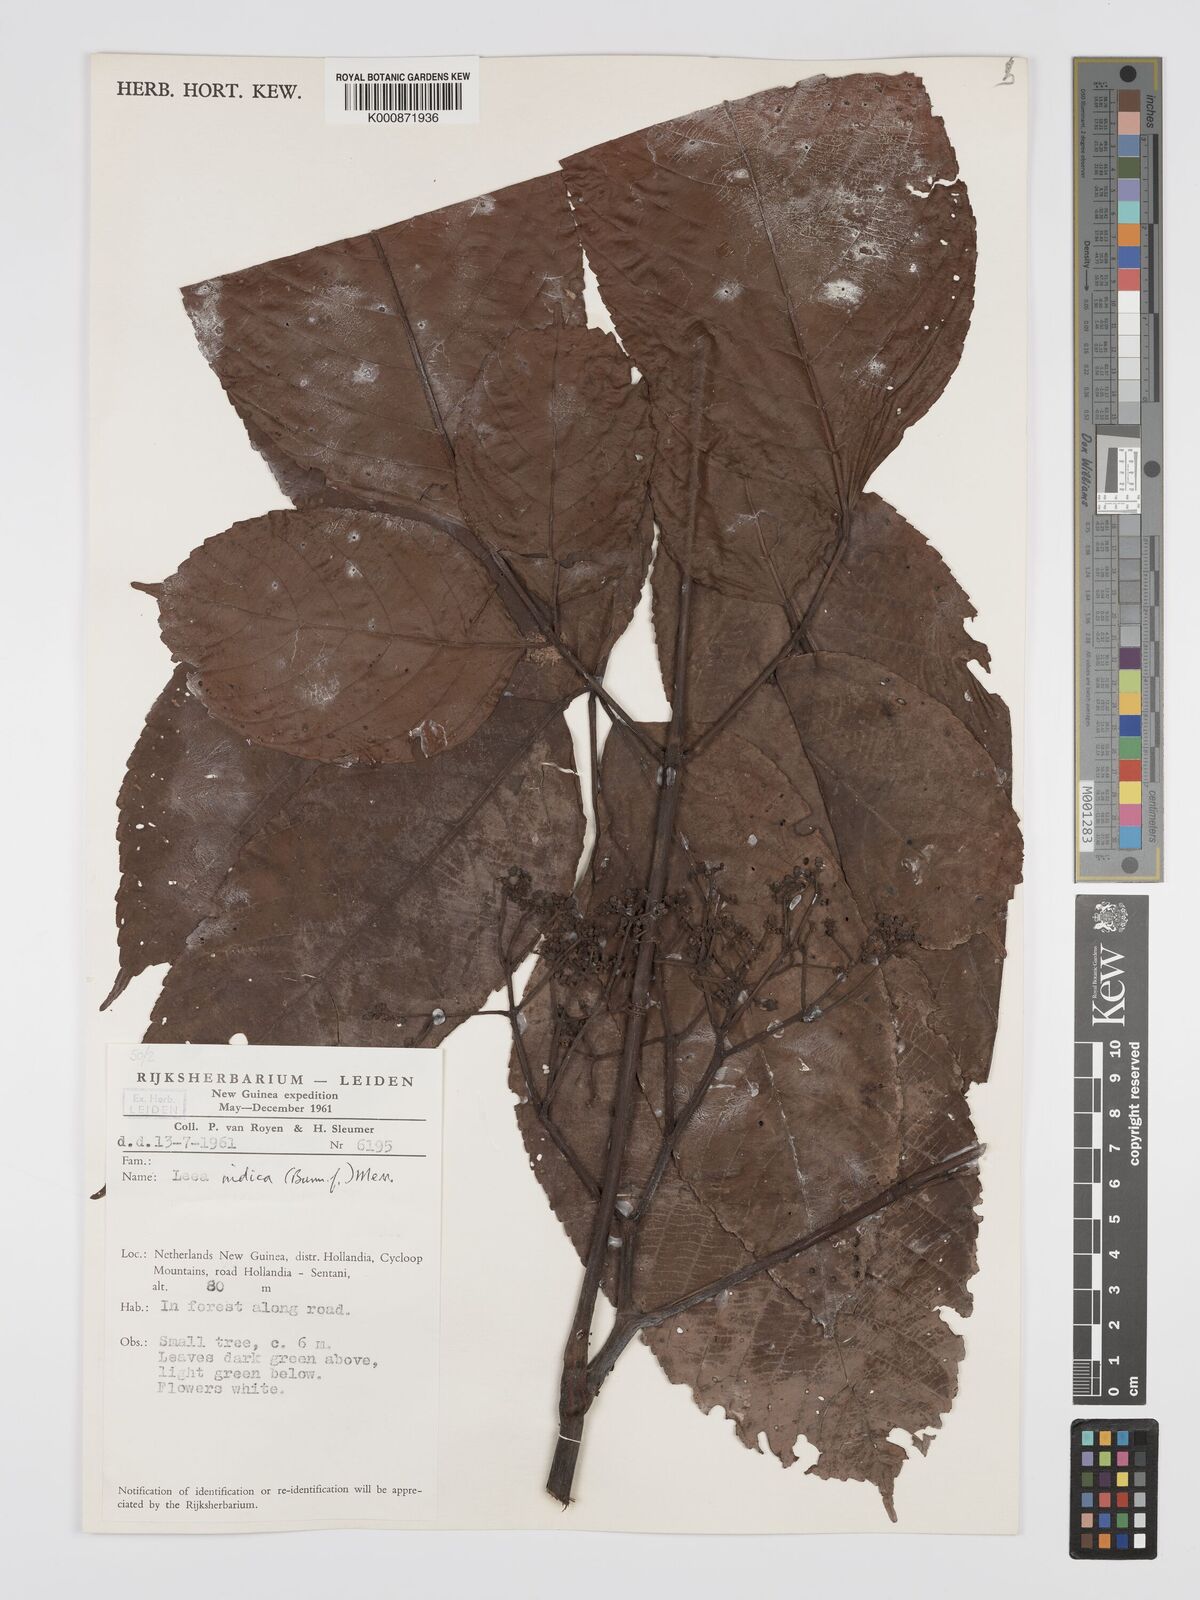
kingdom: Plantae
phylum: Tracheophyta
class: Magnoliopsida
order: Vitales
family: Vitaceae
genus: Leea
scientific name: Leea indica
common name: Bandicoot-berry
